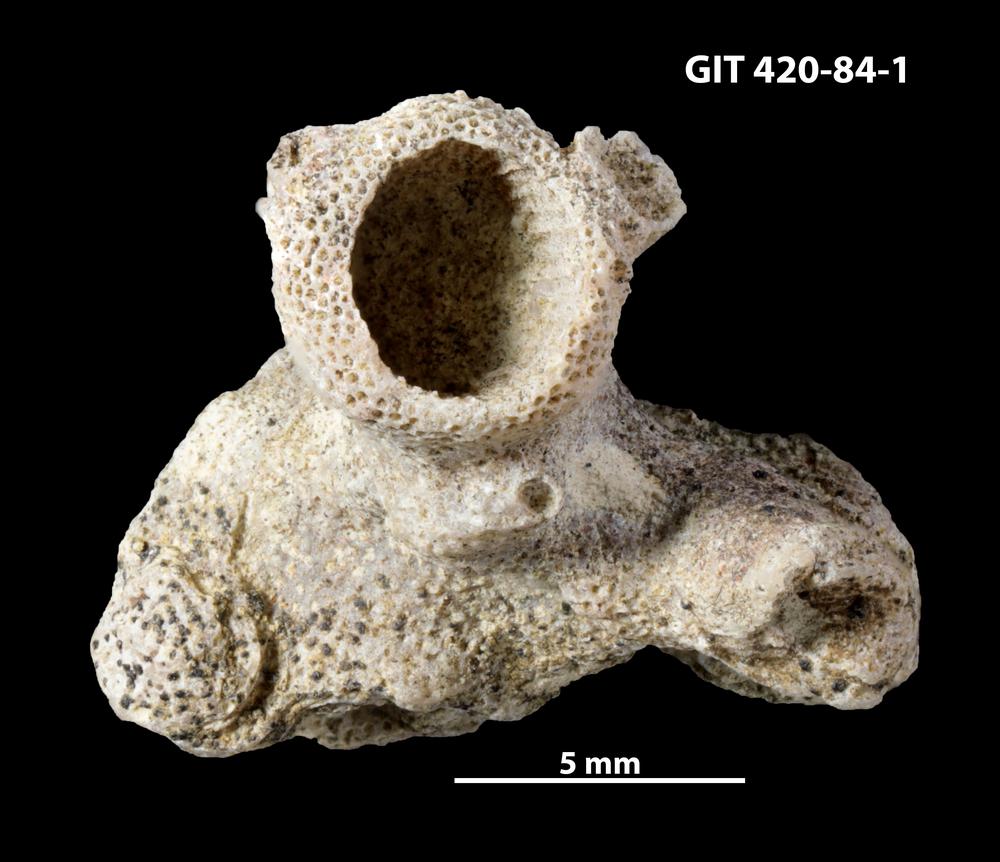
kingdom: Animalia
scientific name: Animalia
